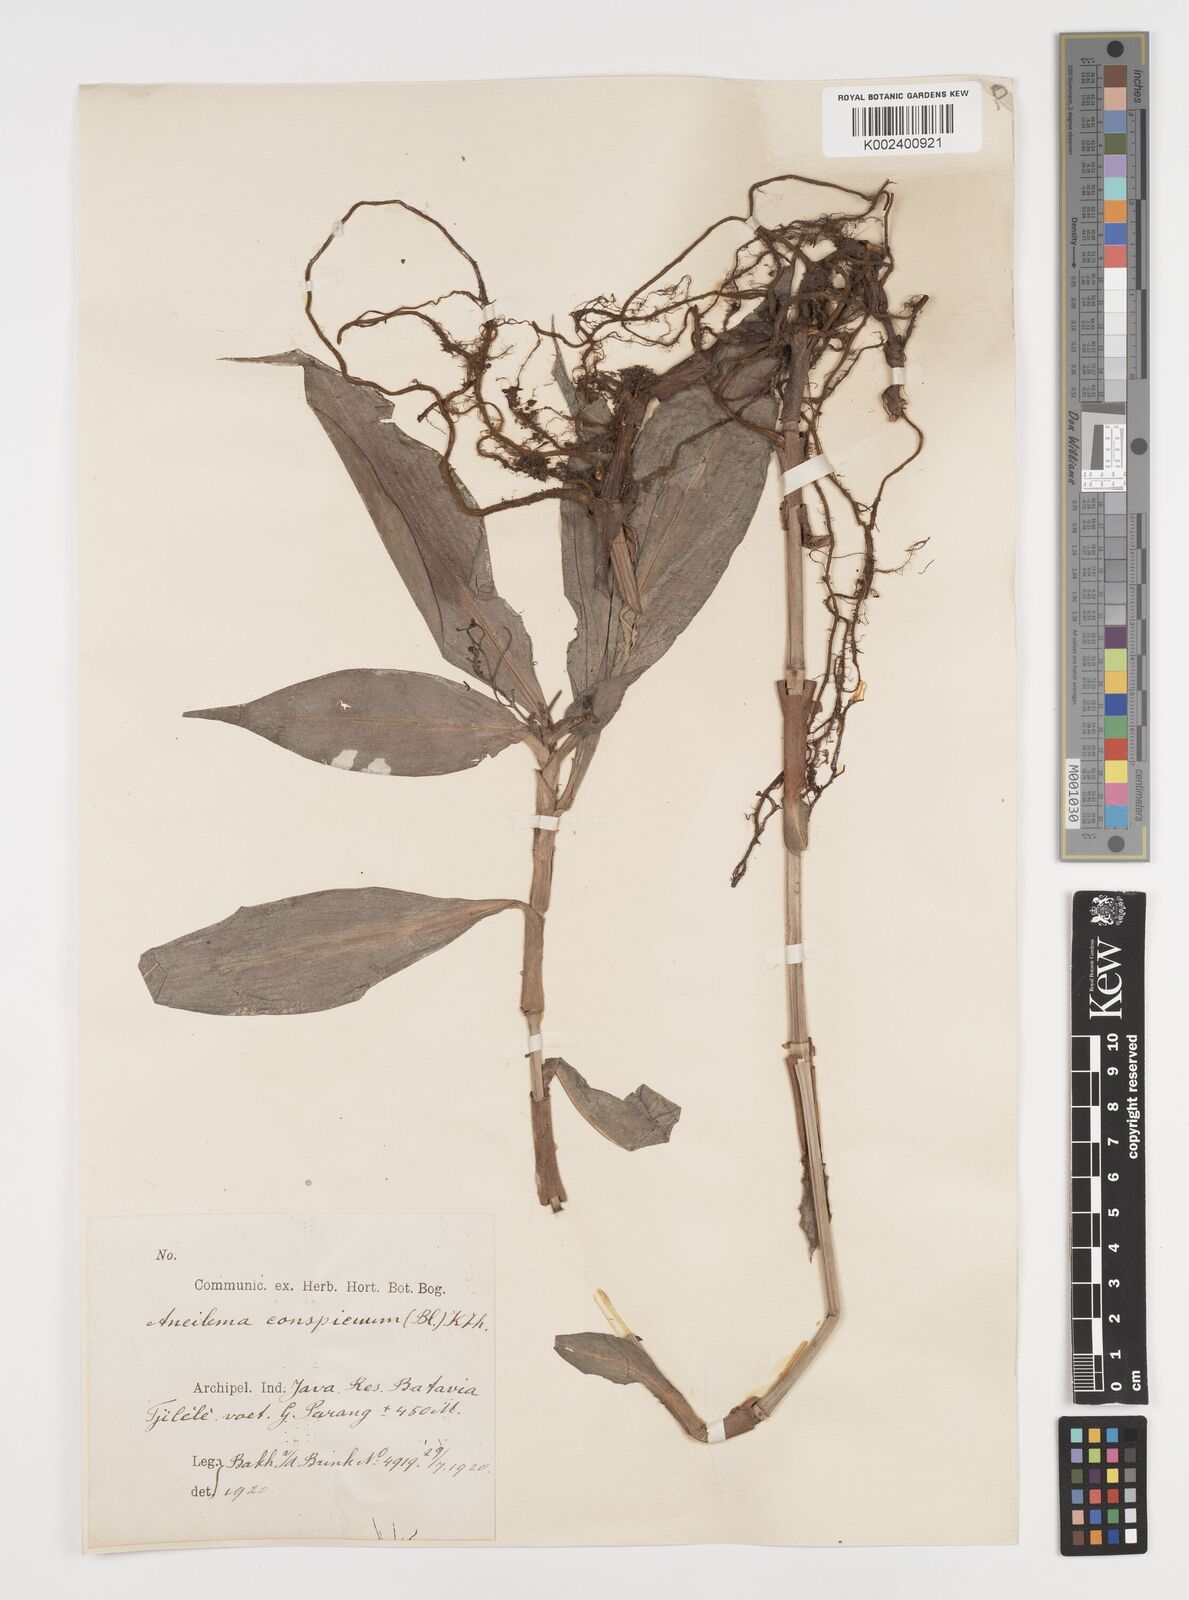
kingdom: Plantae
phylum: Tracheophyta
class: Liliopsida
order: Commelinales
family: Commelinaceae
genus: Dictyospermum
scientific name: Dictyospermum conspicuum
